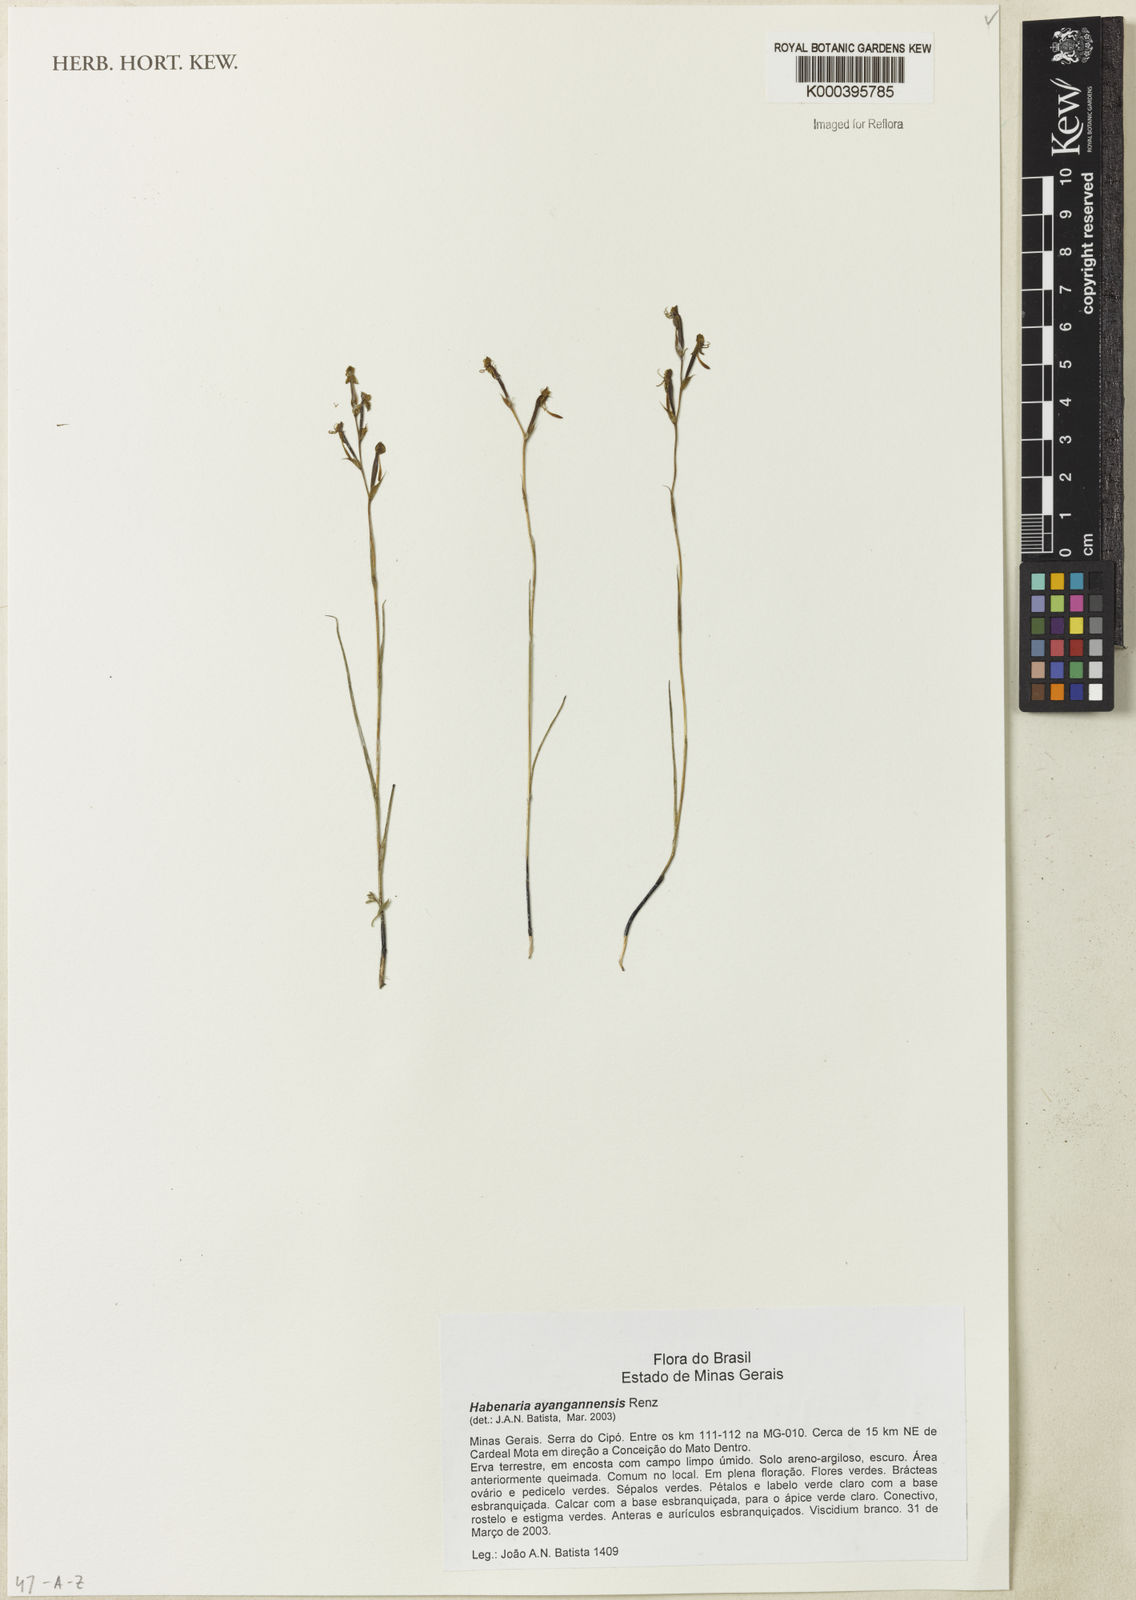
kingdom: Plantae
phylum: Tracheophyta
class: Liliopsida
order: Asparagales
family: Orchidaceae
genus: Habenaria
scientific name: Habenaria ayangannensis
